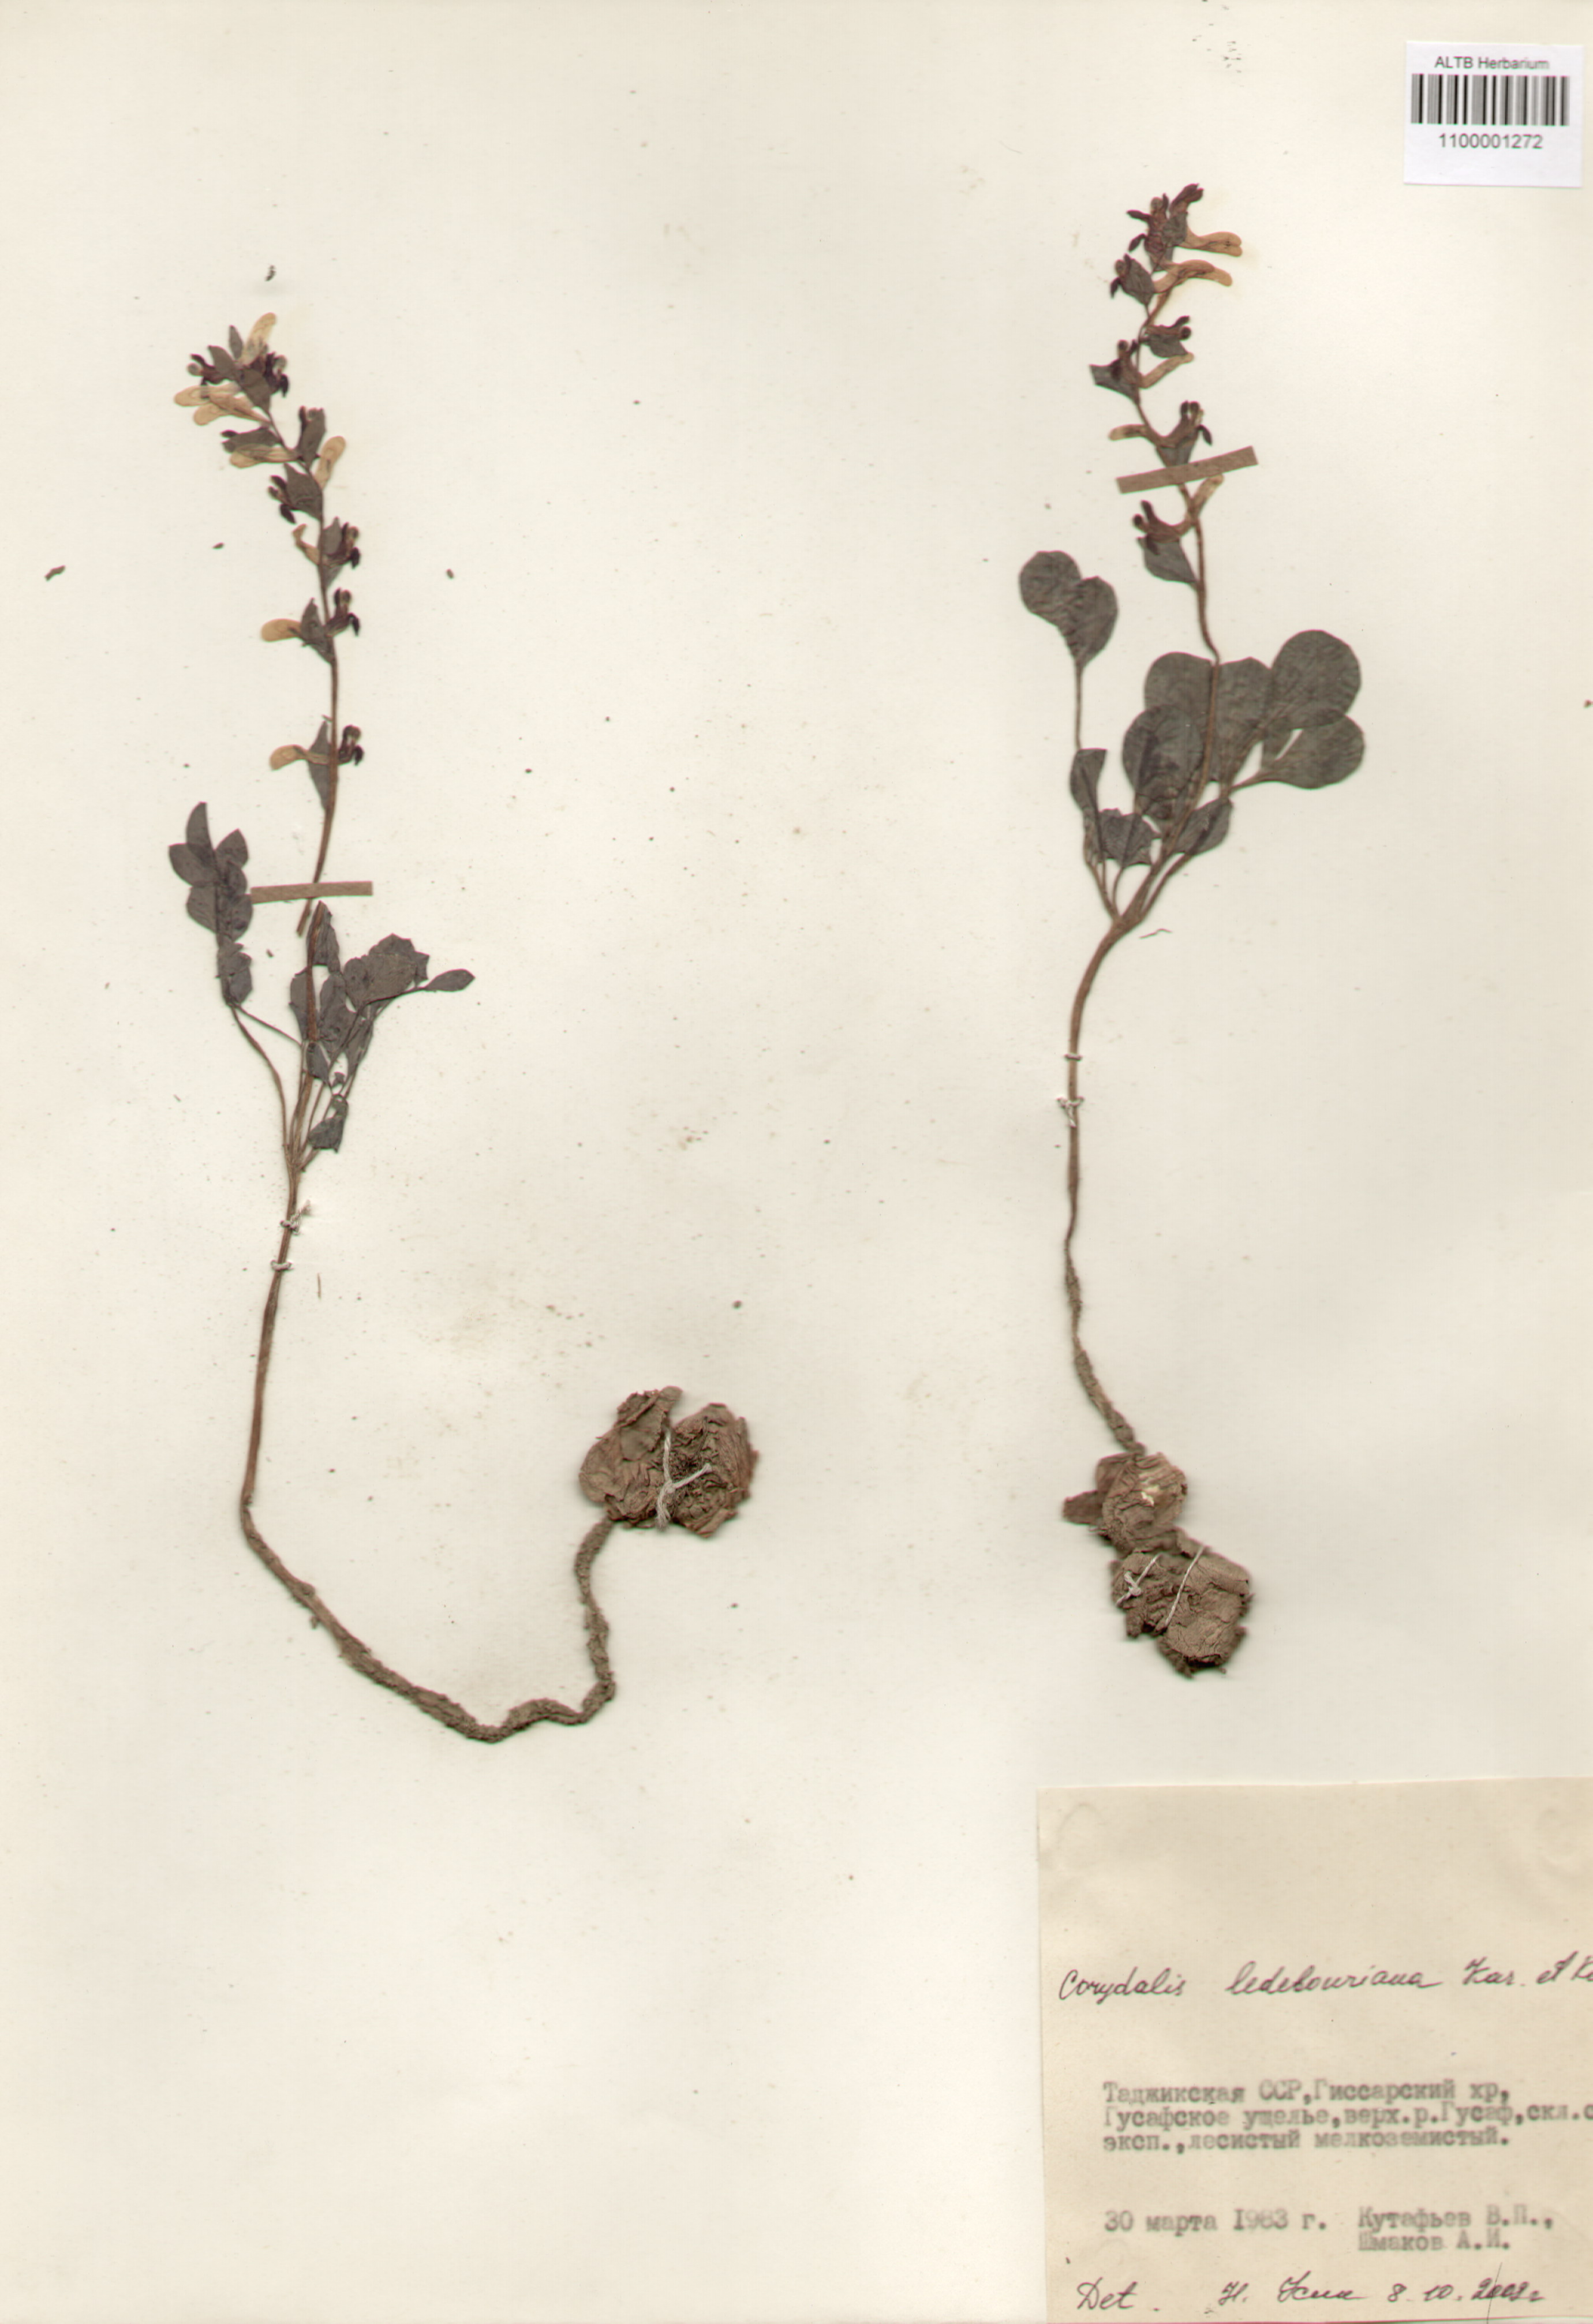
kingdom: Plantae
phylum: Tracheophyta
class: Magnoliopsida
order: Ranunculales
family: Papaveraceae
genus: Corydalis
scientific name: Corydalis ledebouriana
